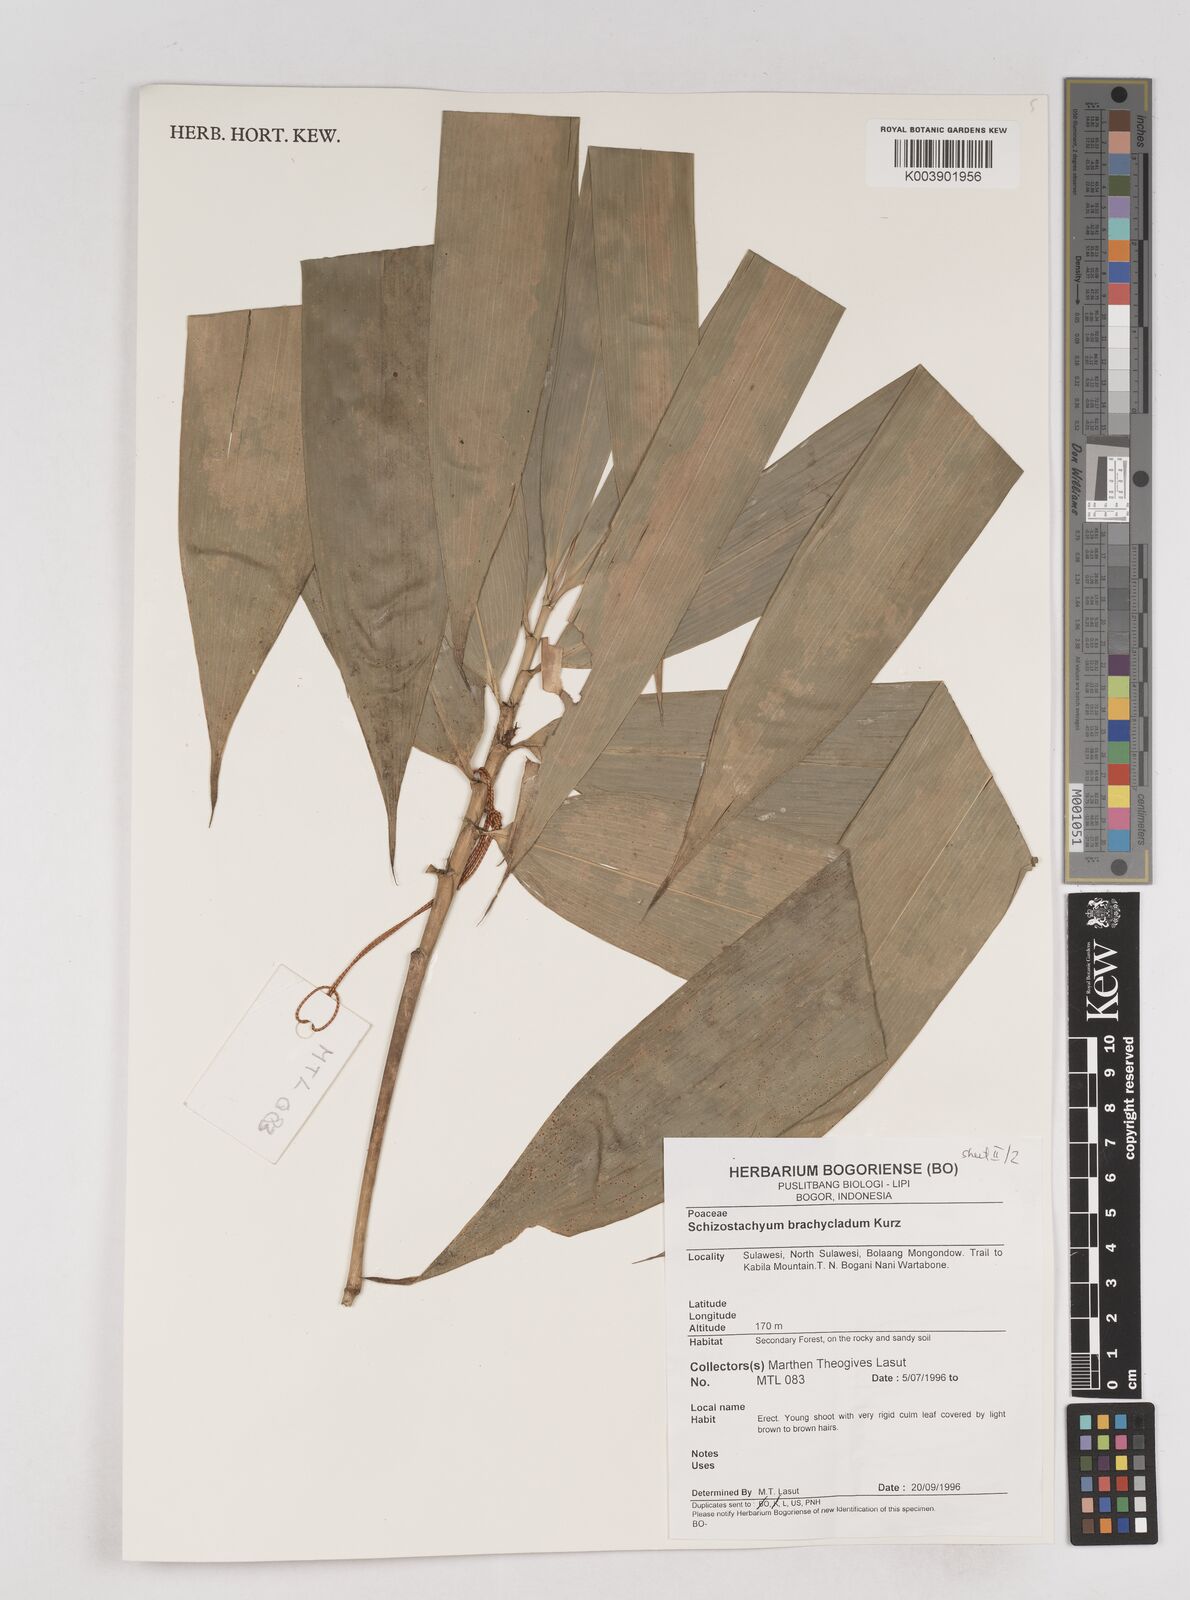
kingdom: Plantae
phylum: Tracheophyta
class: Liliopsida
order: Poales
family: Poaceae
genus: Schizostachyum
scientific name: Schizostachyum brachycladum
